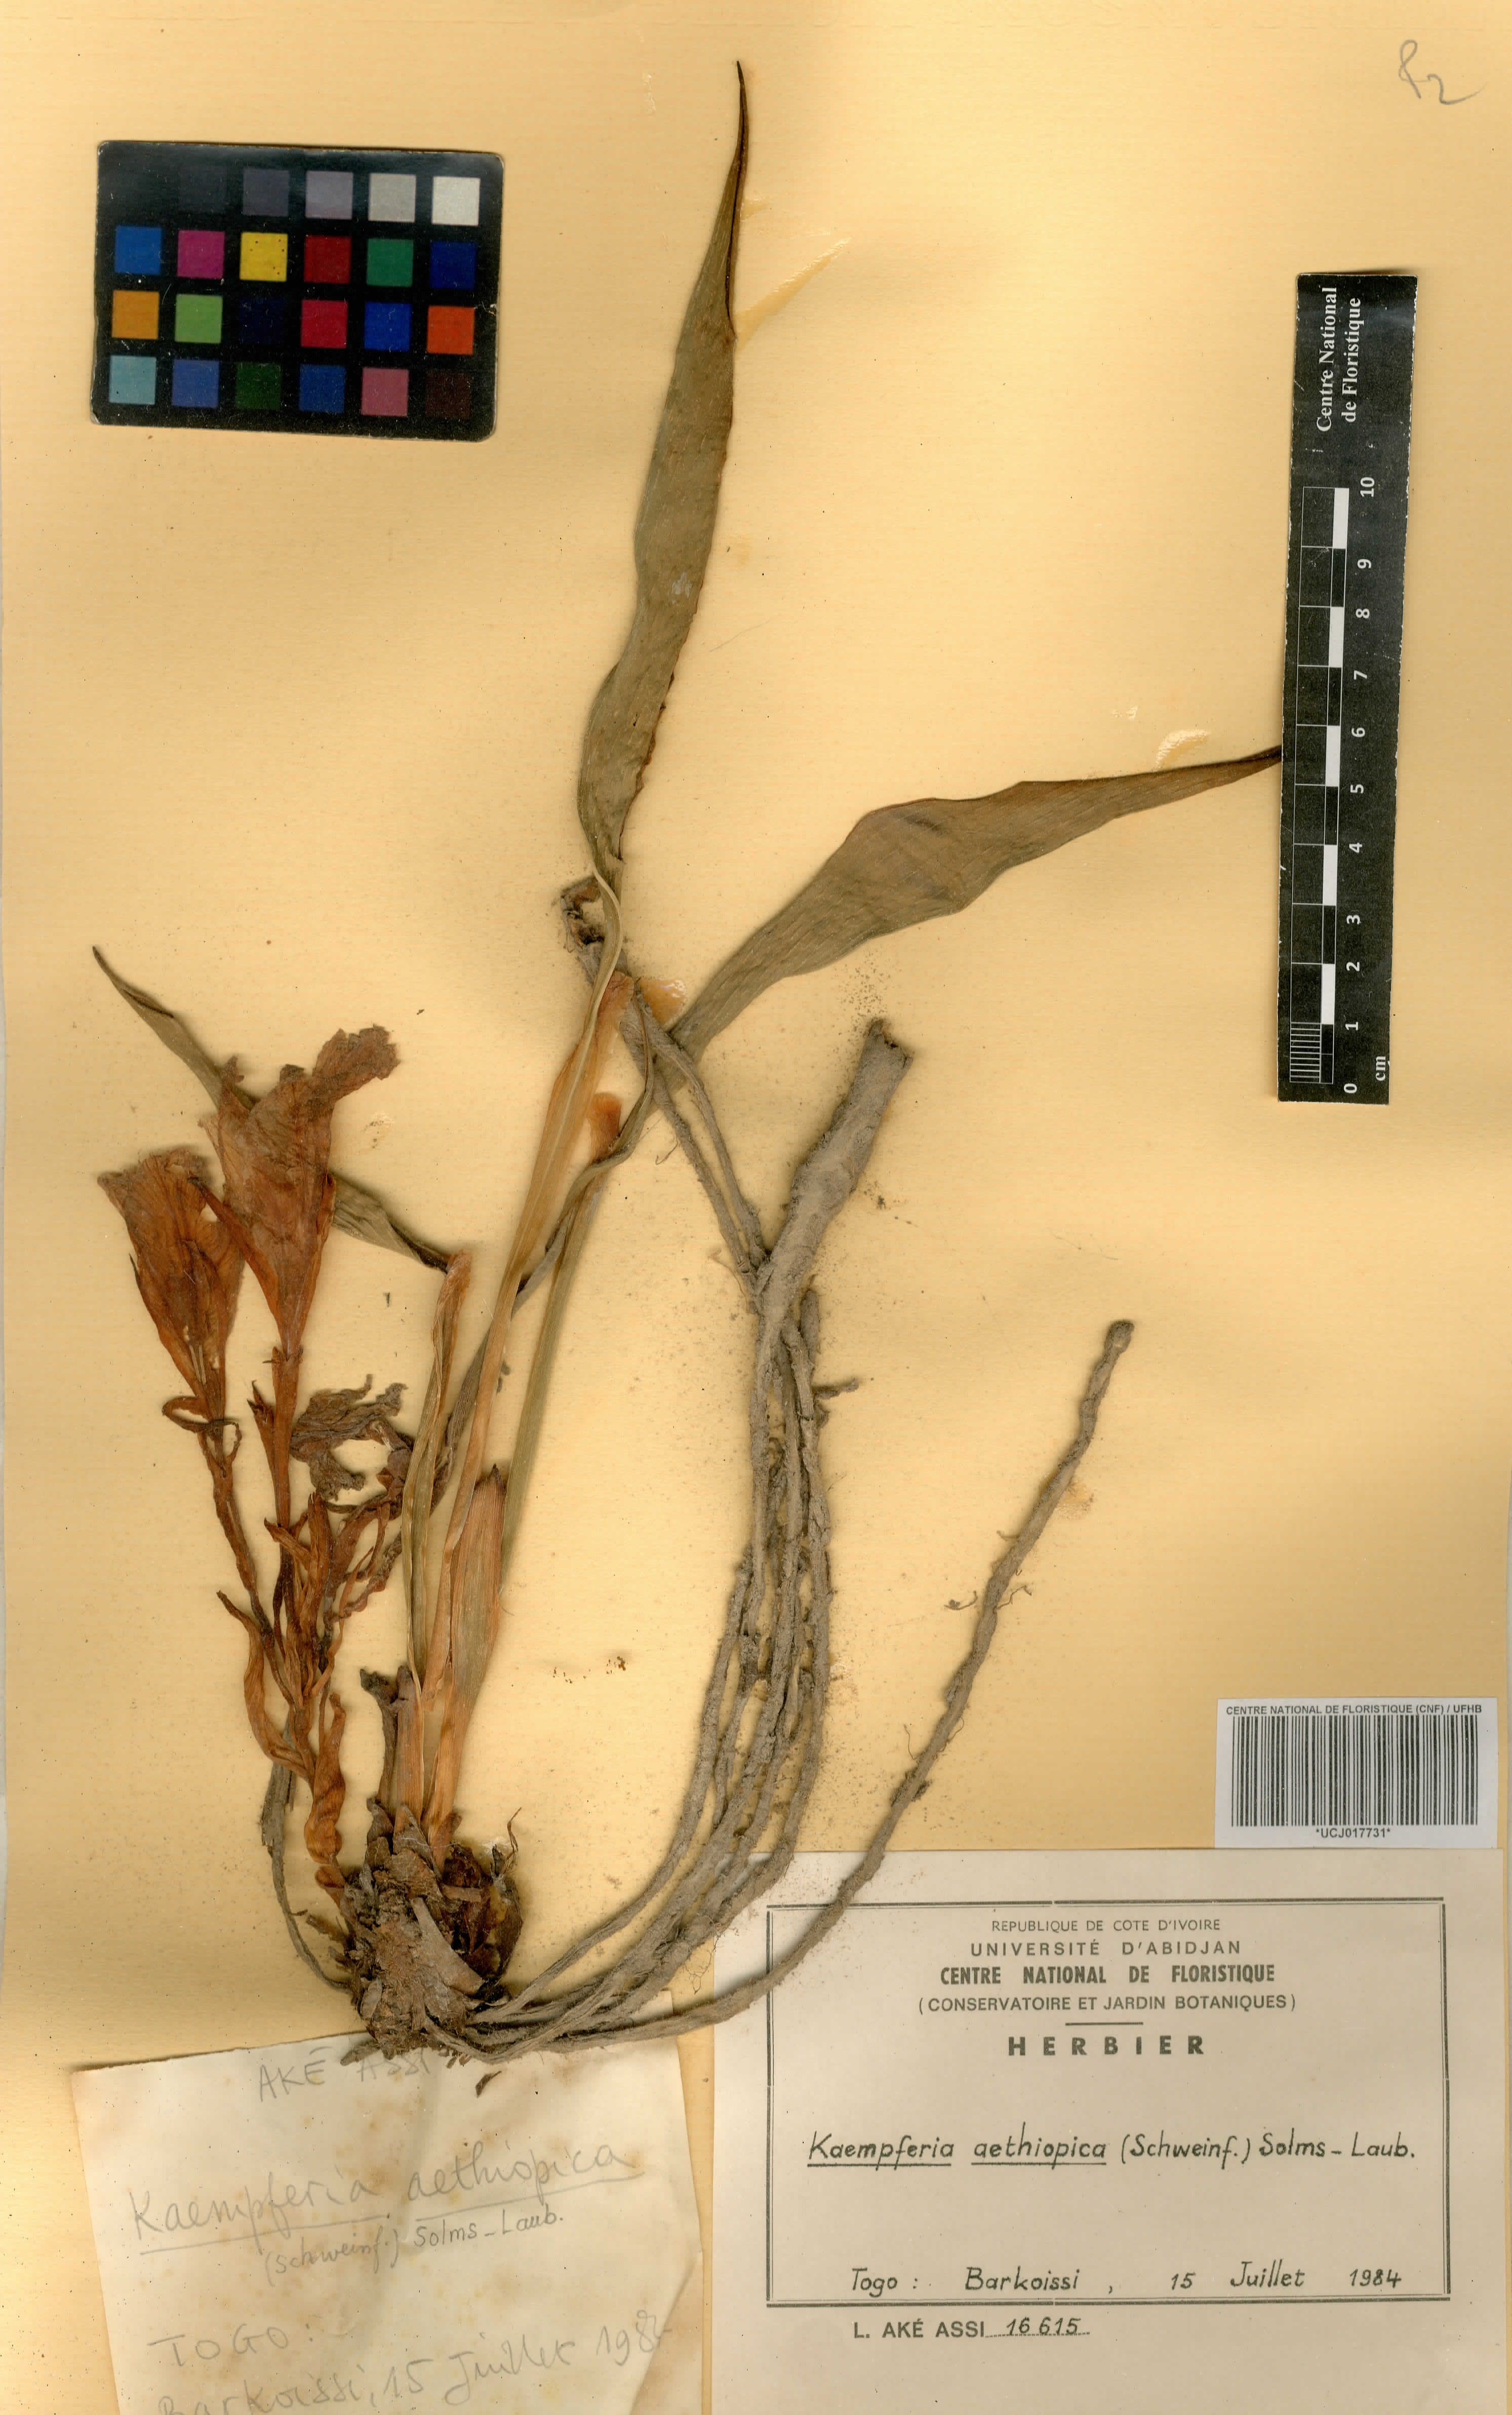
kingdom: Plantae
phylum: Tracheophyta
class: Liliopsida
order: Zingiberales
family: Zingiberaceae
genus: Kaempferia
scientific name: Kaempferia aethiopica
